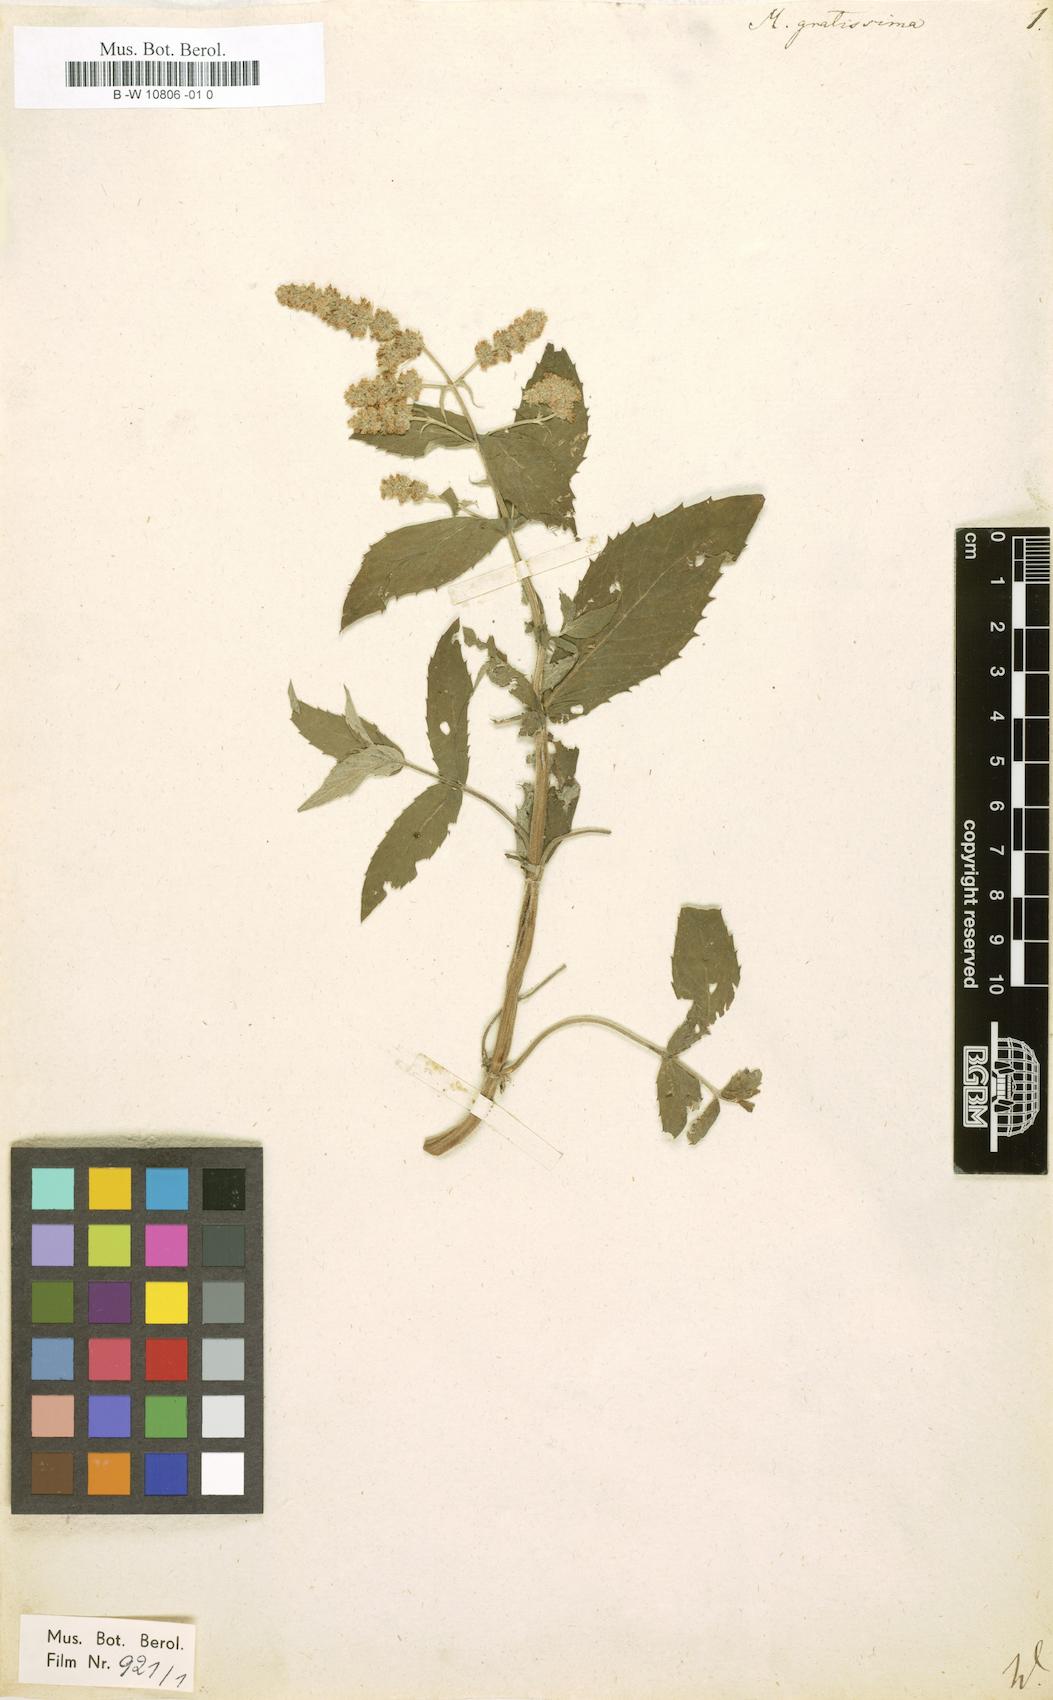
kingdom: Plantae
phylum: Tracheophyta
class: Magnoliopsida
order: Lamiales
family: Lamiaceae
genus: Mentha
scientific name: Mentha gratissima
